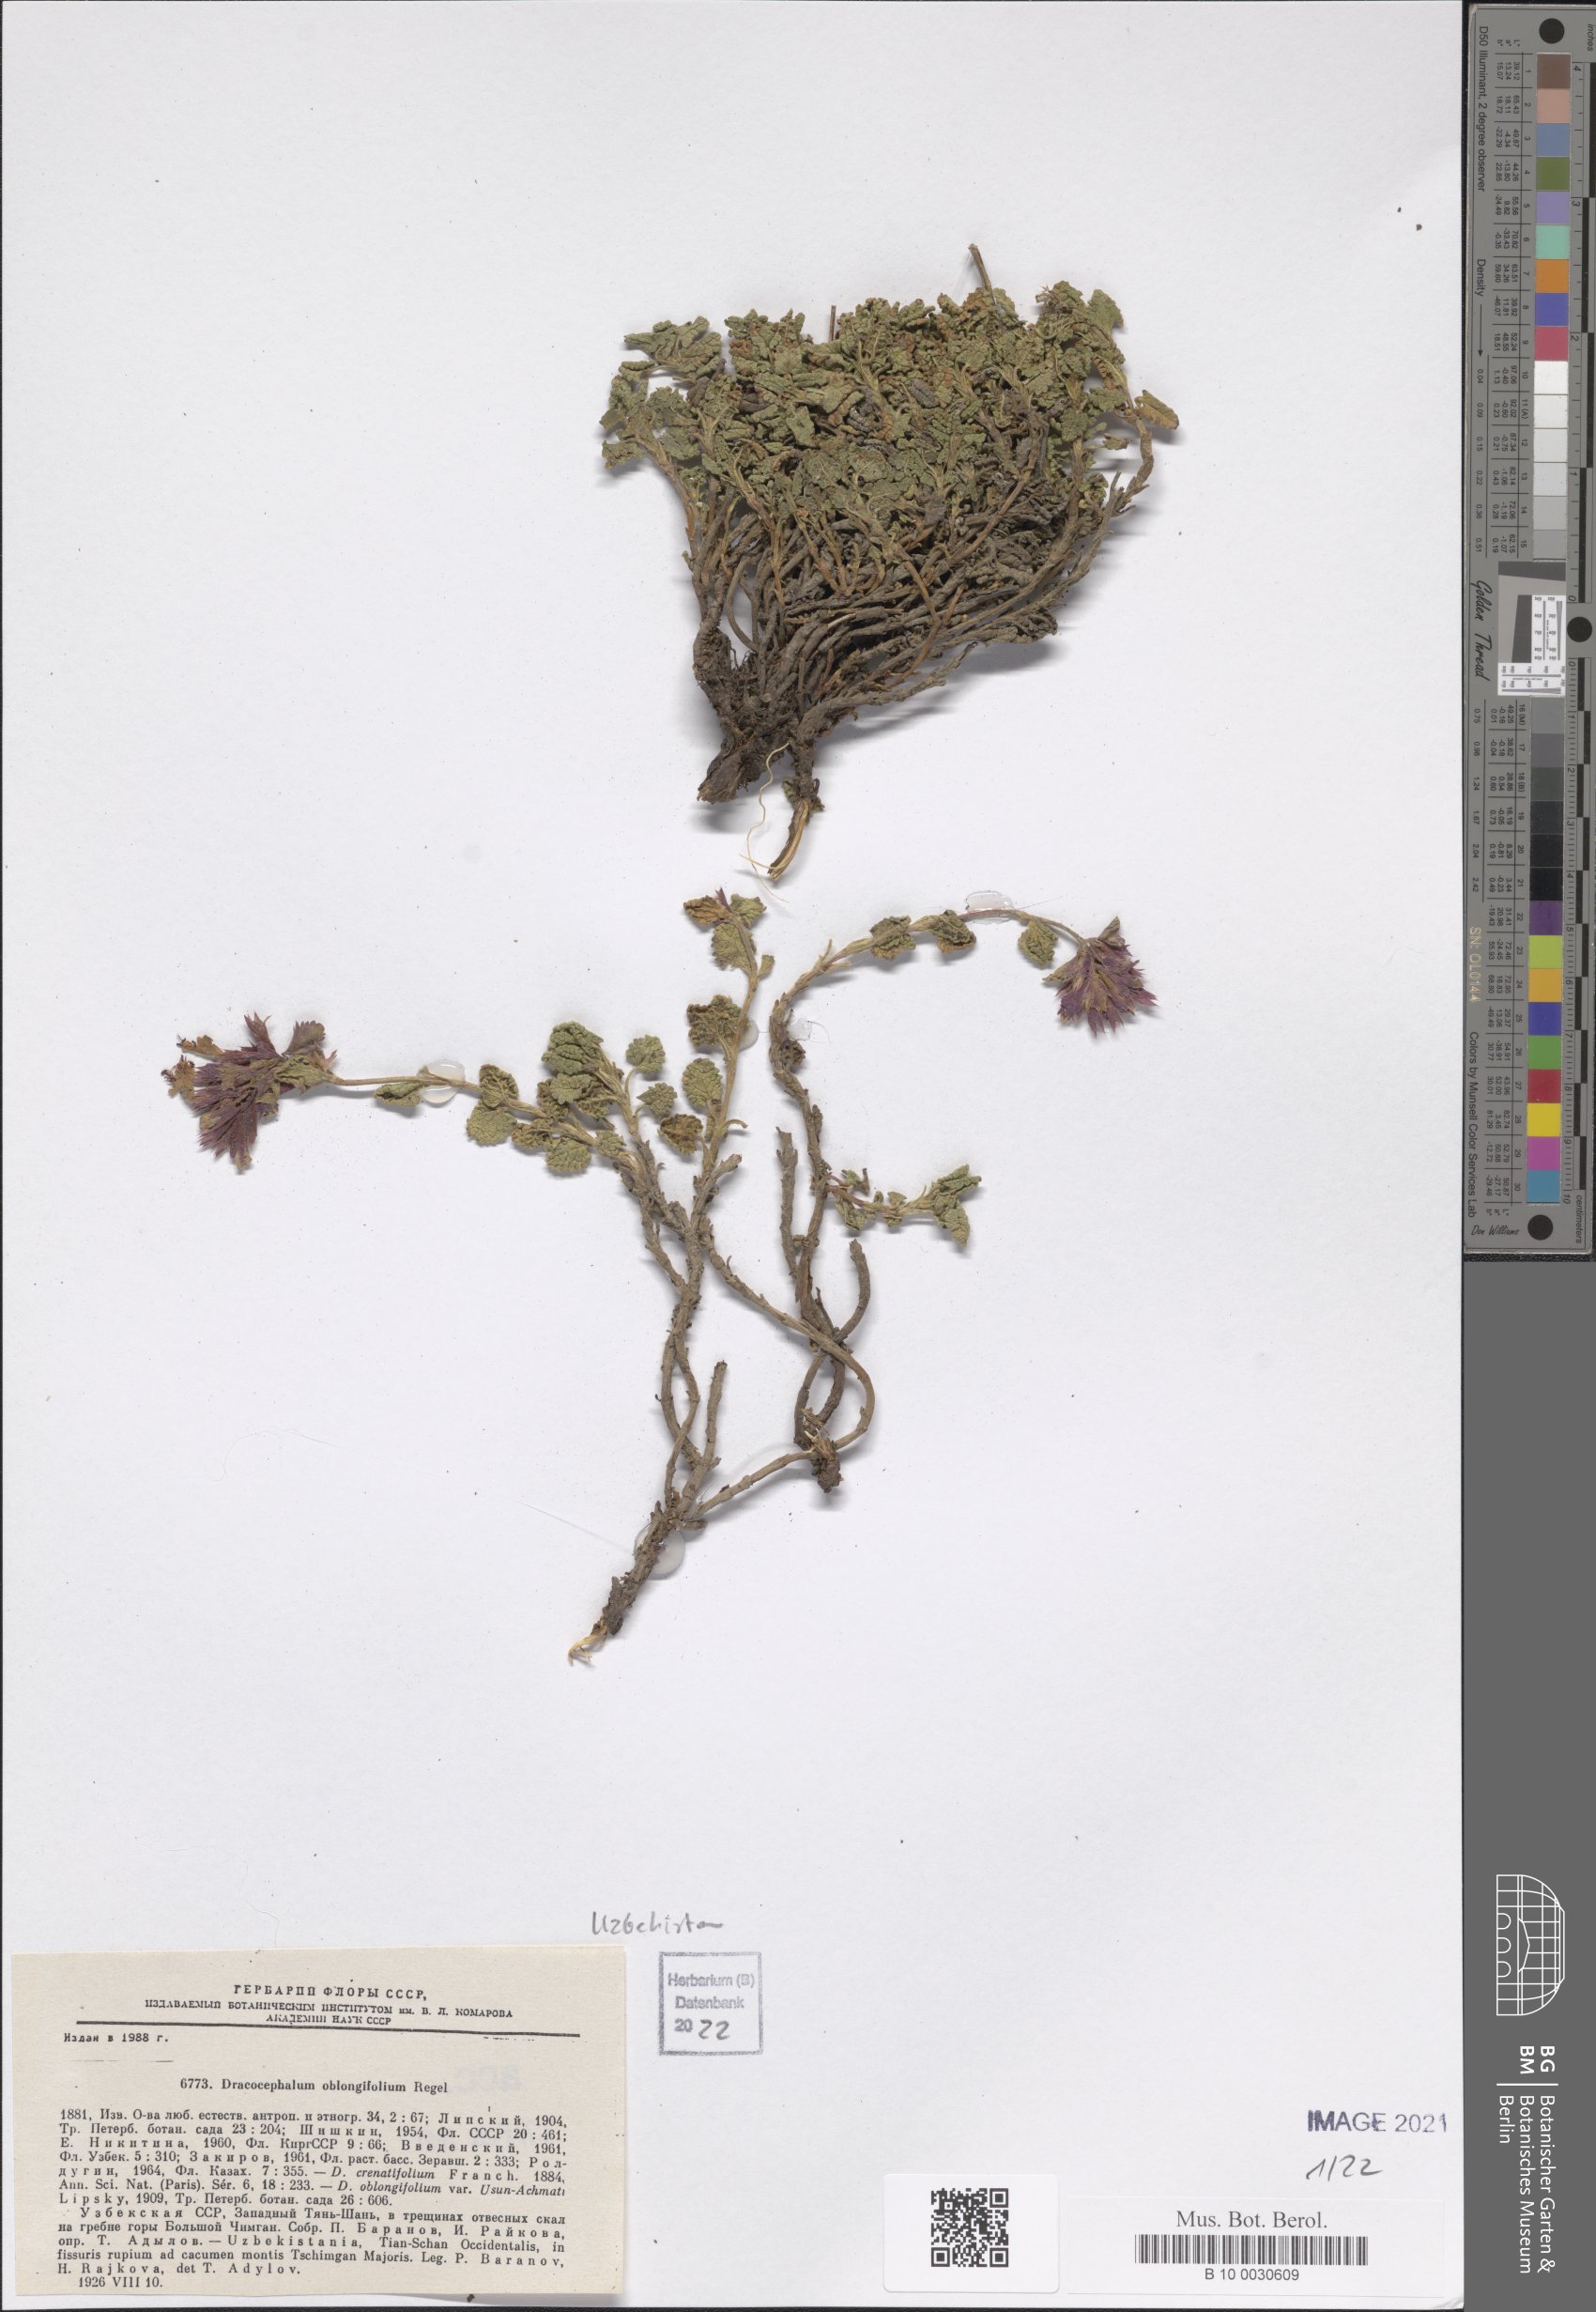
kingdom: Plantae
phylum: Tracheophyta
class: Magnoliopsida
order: Lamiales
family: Lamiaceae
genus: Dracocephalum
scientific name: Dracocephalum oblongifolium
